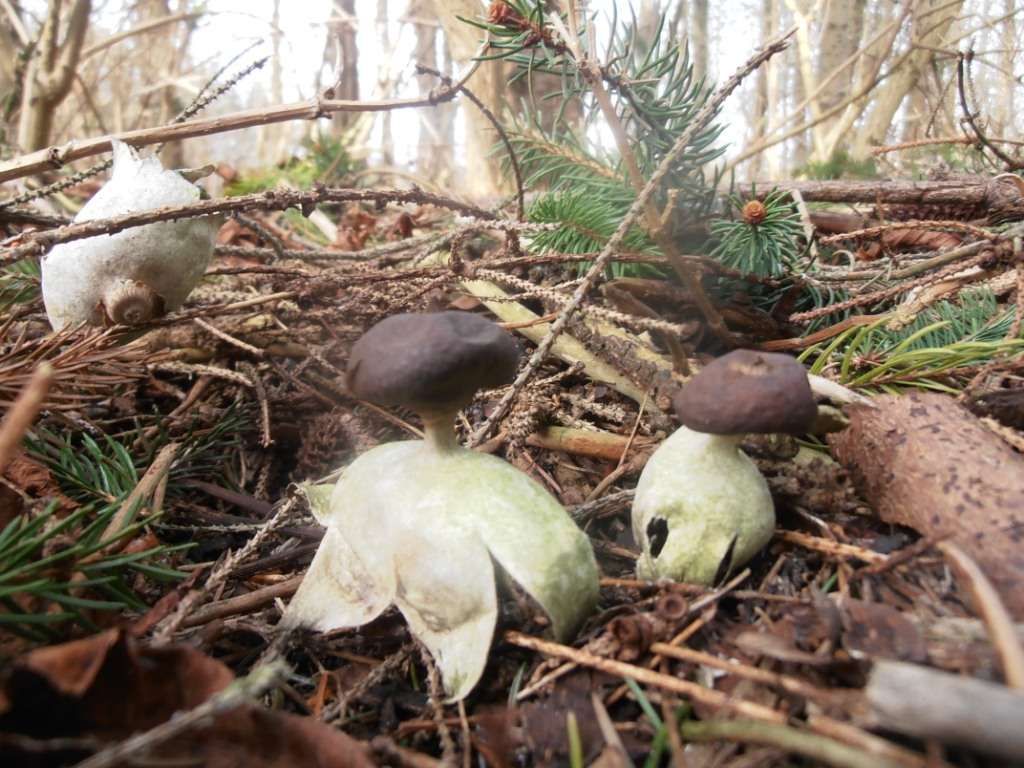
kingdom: Fungi
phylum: Basidiomycota
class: Agaricomycetes
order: Geastrales
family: Geastraceae
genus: Geastrum
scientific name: Geastrum pectinatum
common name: stilket stjernebold
